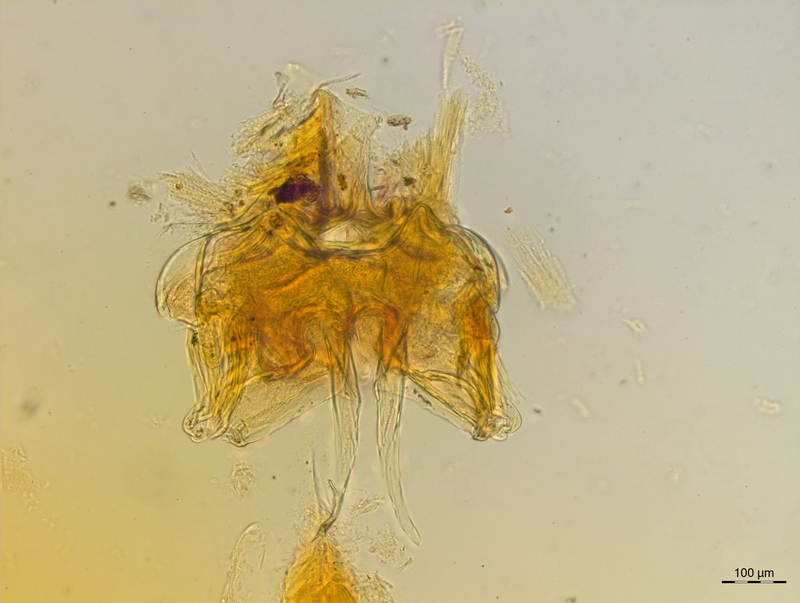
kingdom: Animalia
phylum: Arthropoda
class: Diplopoda
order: Chordeumatida
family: Craspedosomatidae
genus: Craspedosoma
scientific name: Craspedosoma rawlinsii
